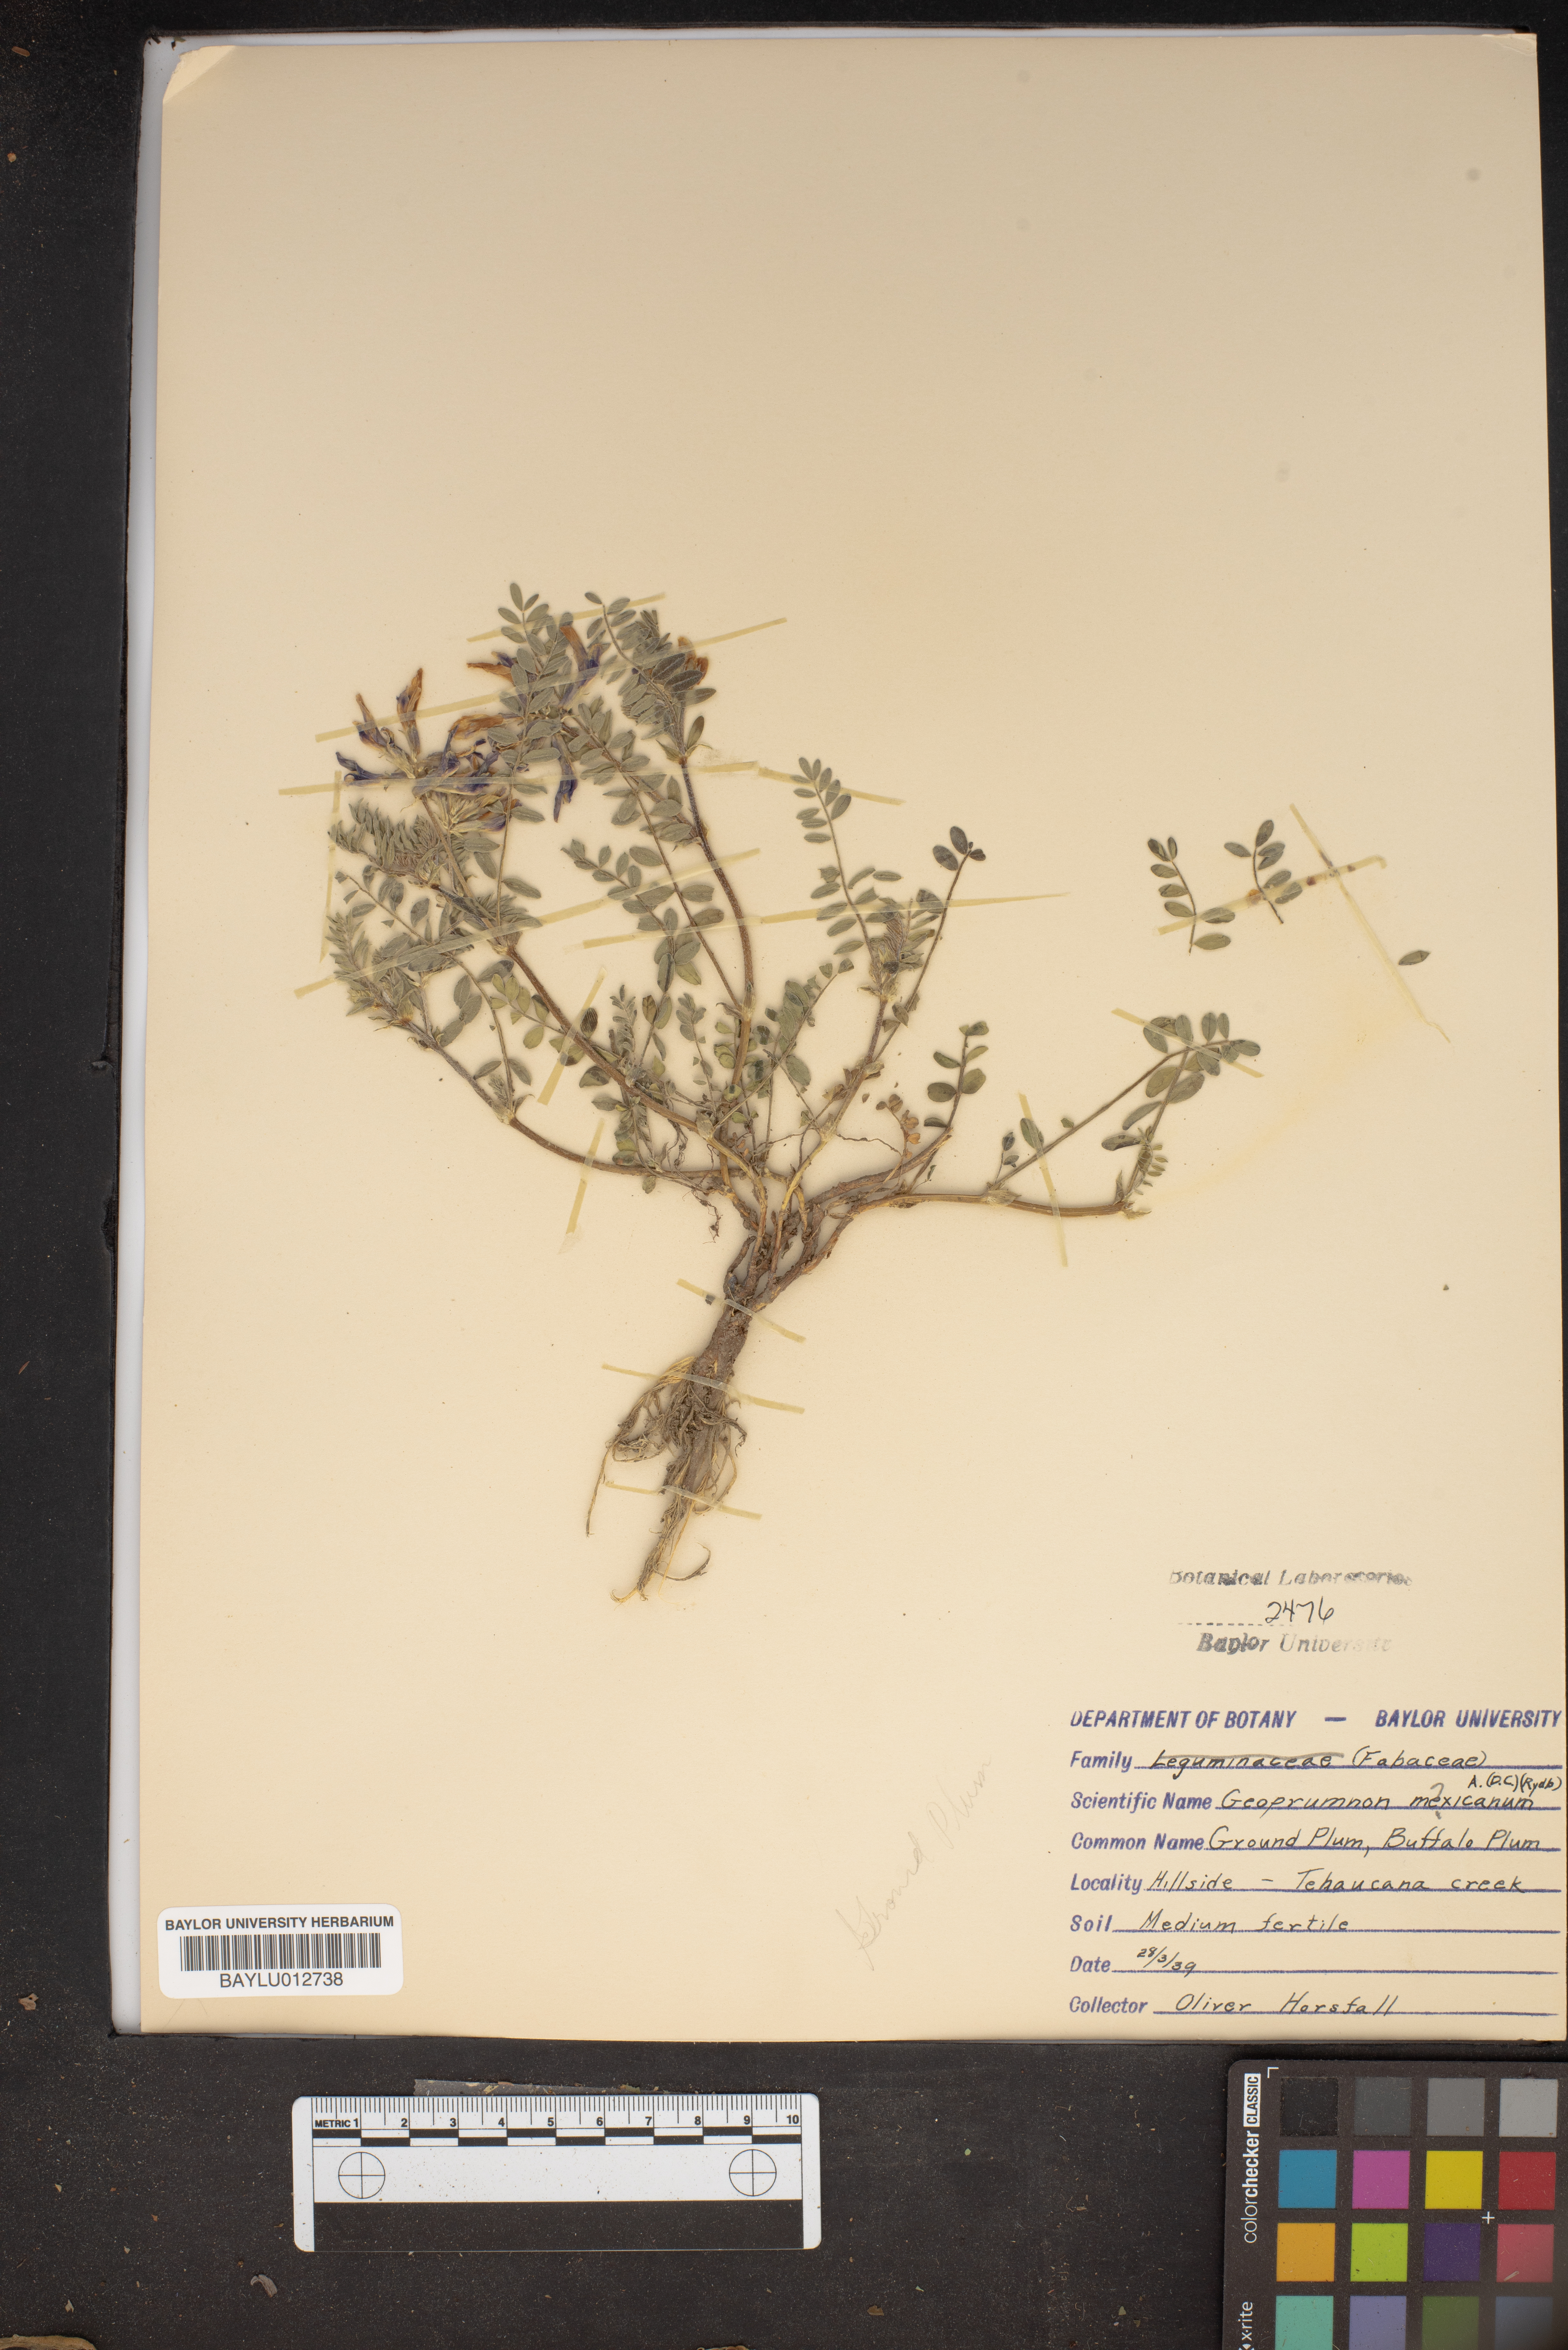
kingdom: Plantae
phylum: Tracheophyta
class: Magnoliopsida
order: Fabales
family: Fabaceae
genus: Astragalus
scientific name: Astragalus crassicarpus
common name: Ground-plum milk-vetch
